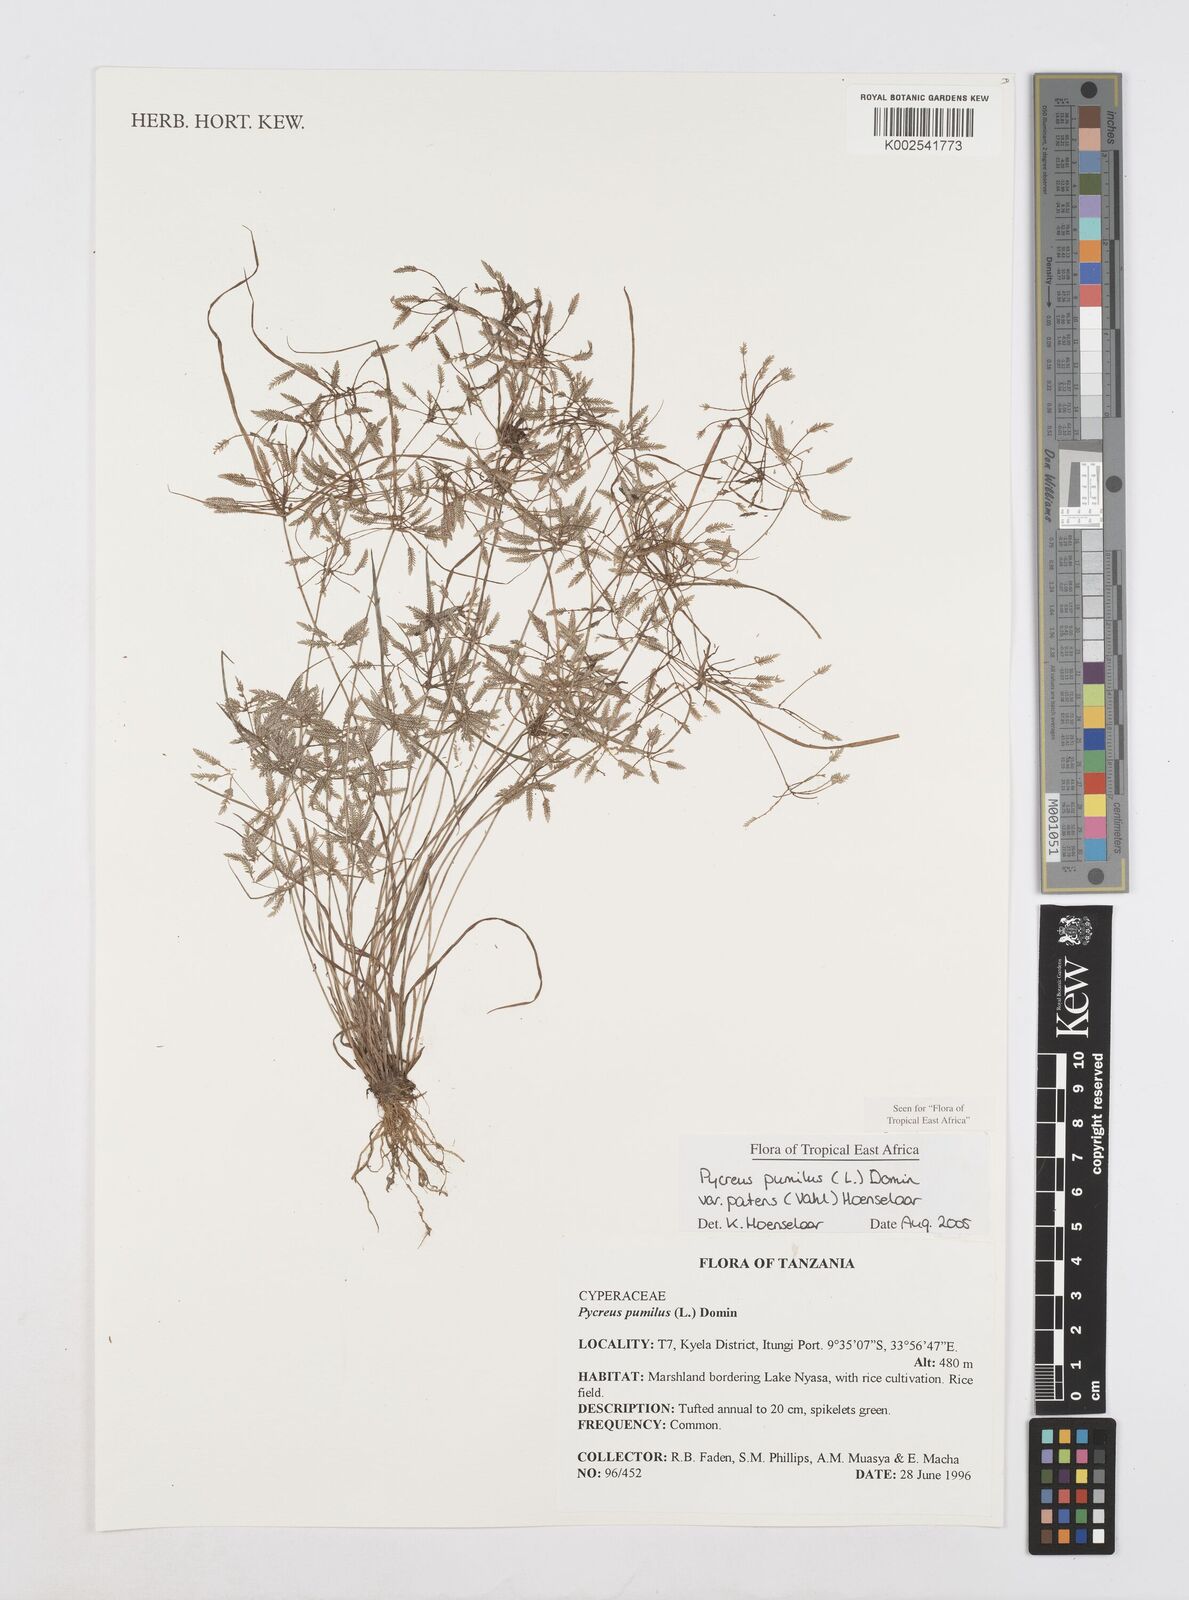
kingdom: Plantae
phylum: Tracheophyta
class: Liliopsida
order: Poales
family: Cyperaceae
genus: Cyperus
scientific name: Cyperus pumilus
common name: Low flatsedge
